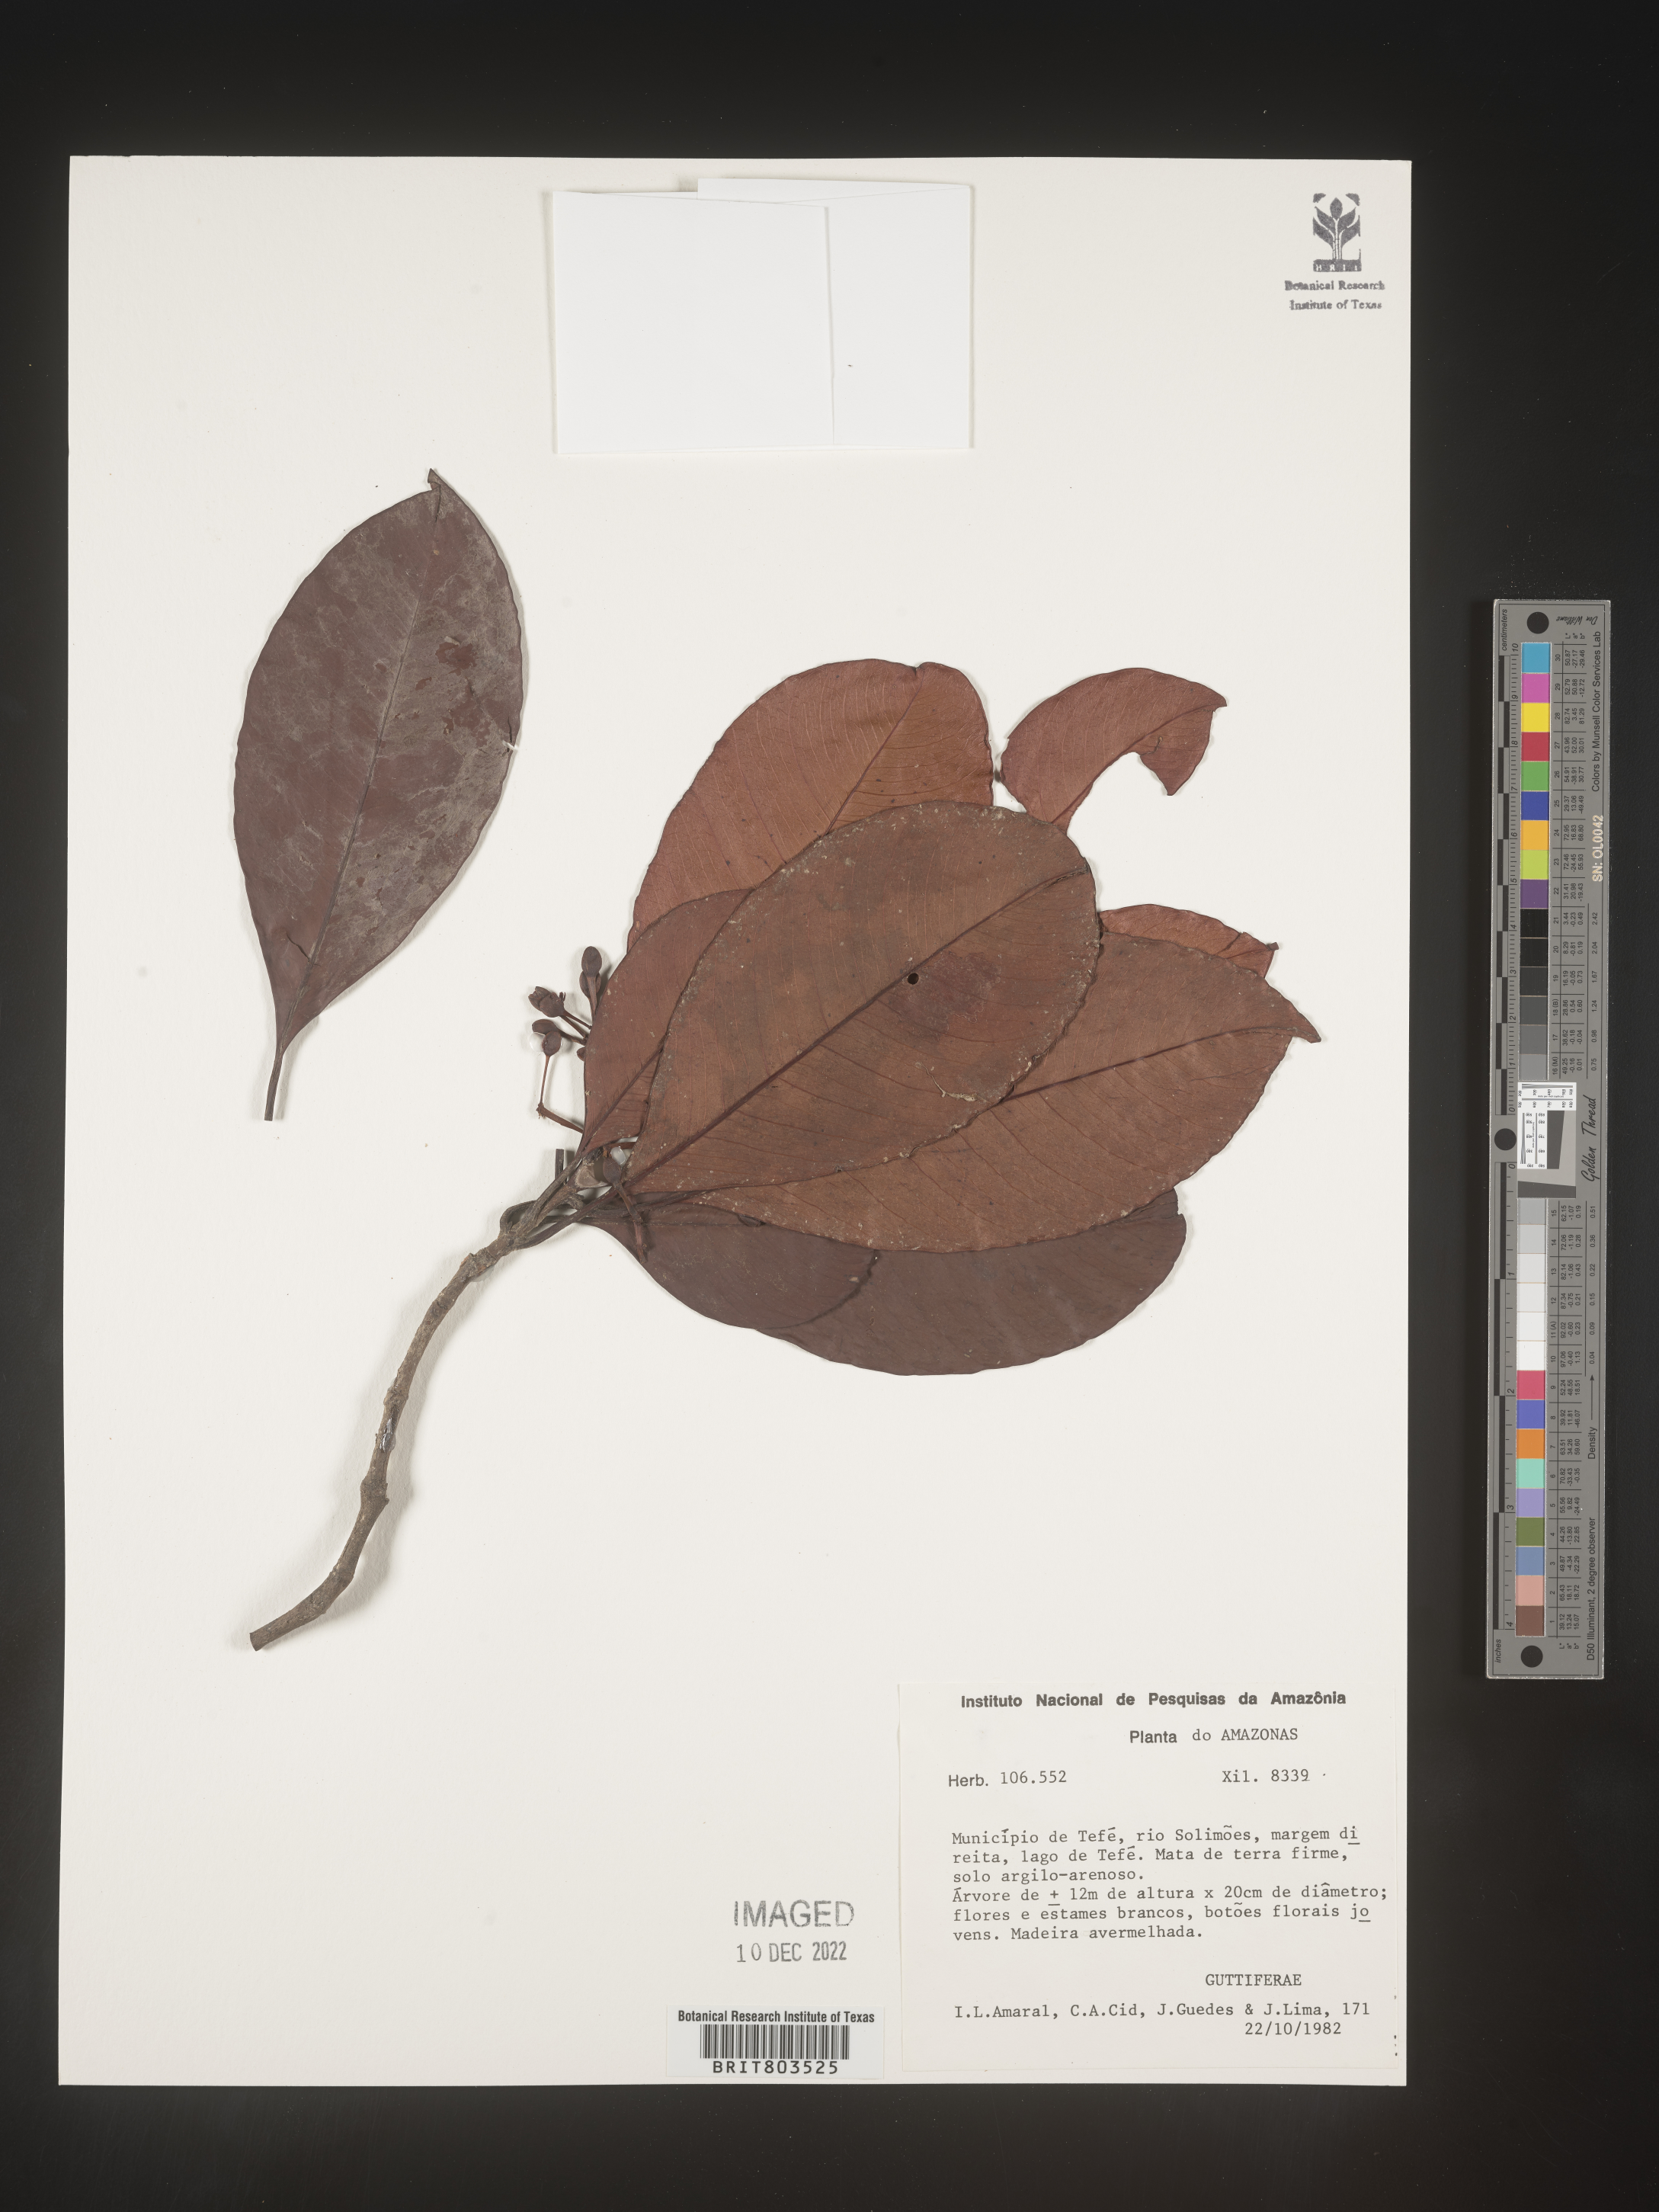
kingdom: Plantae
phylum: Tracheophyta
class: Magnoliopsida
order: Malpighiales
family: Clusiaceae
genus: Tovomita
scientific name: Tovomita
